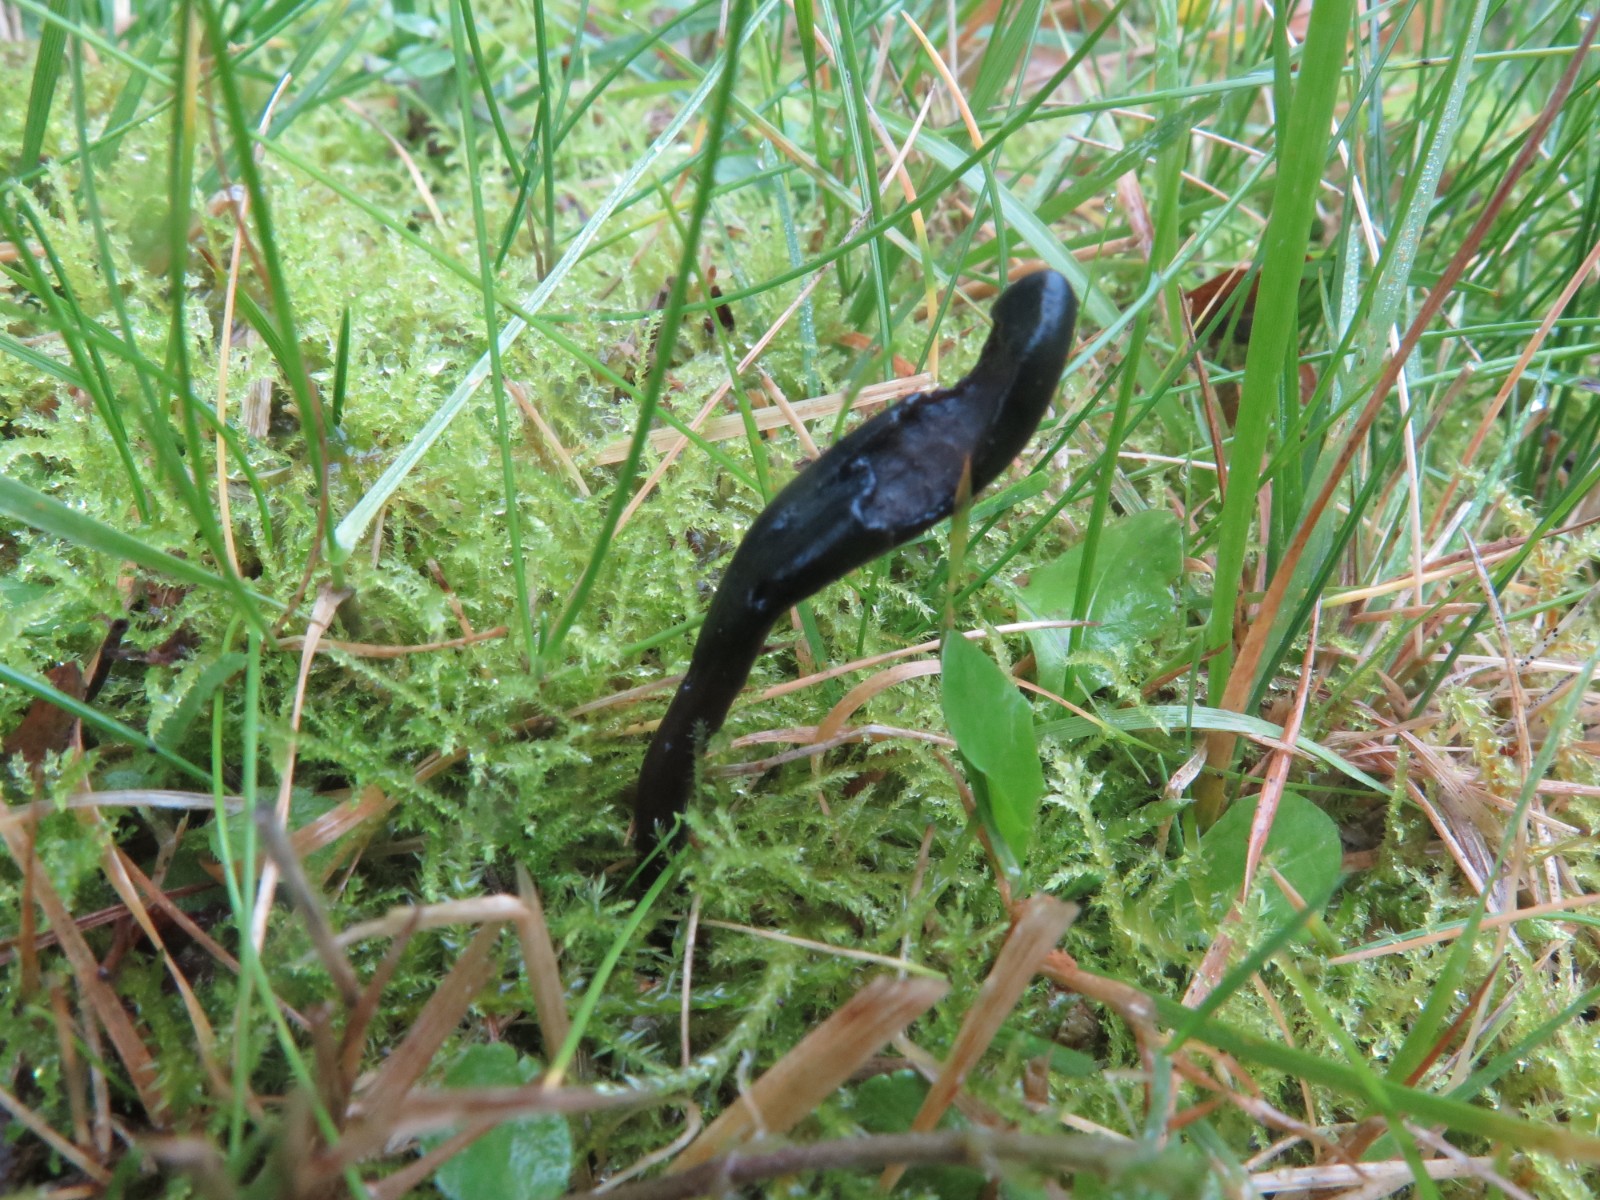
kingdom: Fungi
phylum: Ascomycota
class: Geoglossomycetes
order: Geoglossales
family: Geoglossaceae
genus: Glutinoglossum
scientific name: Glutinoglossum glutinosum
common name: slimet jordtunge
